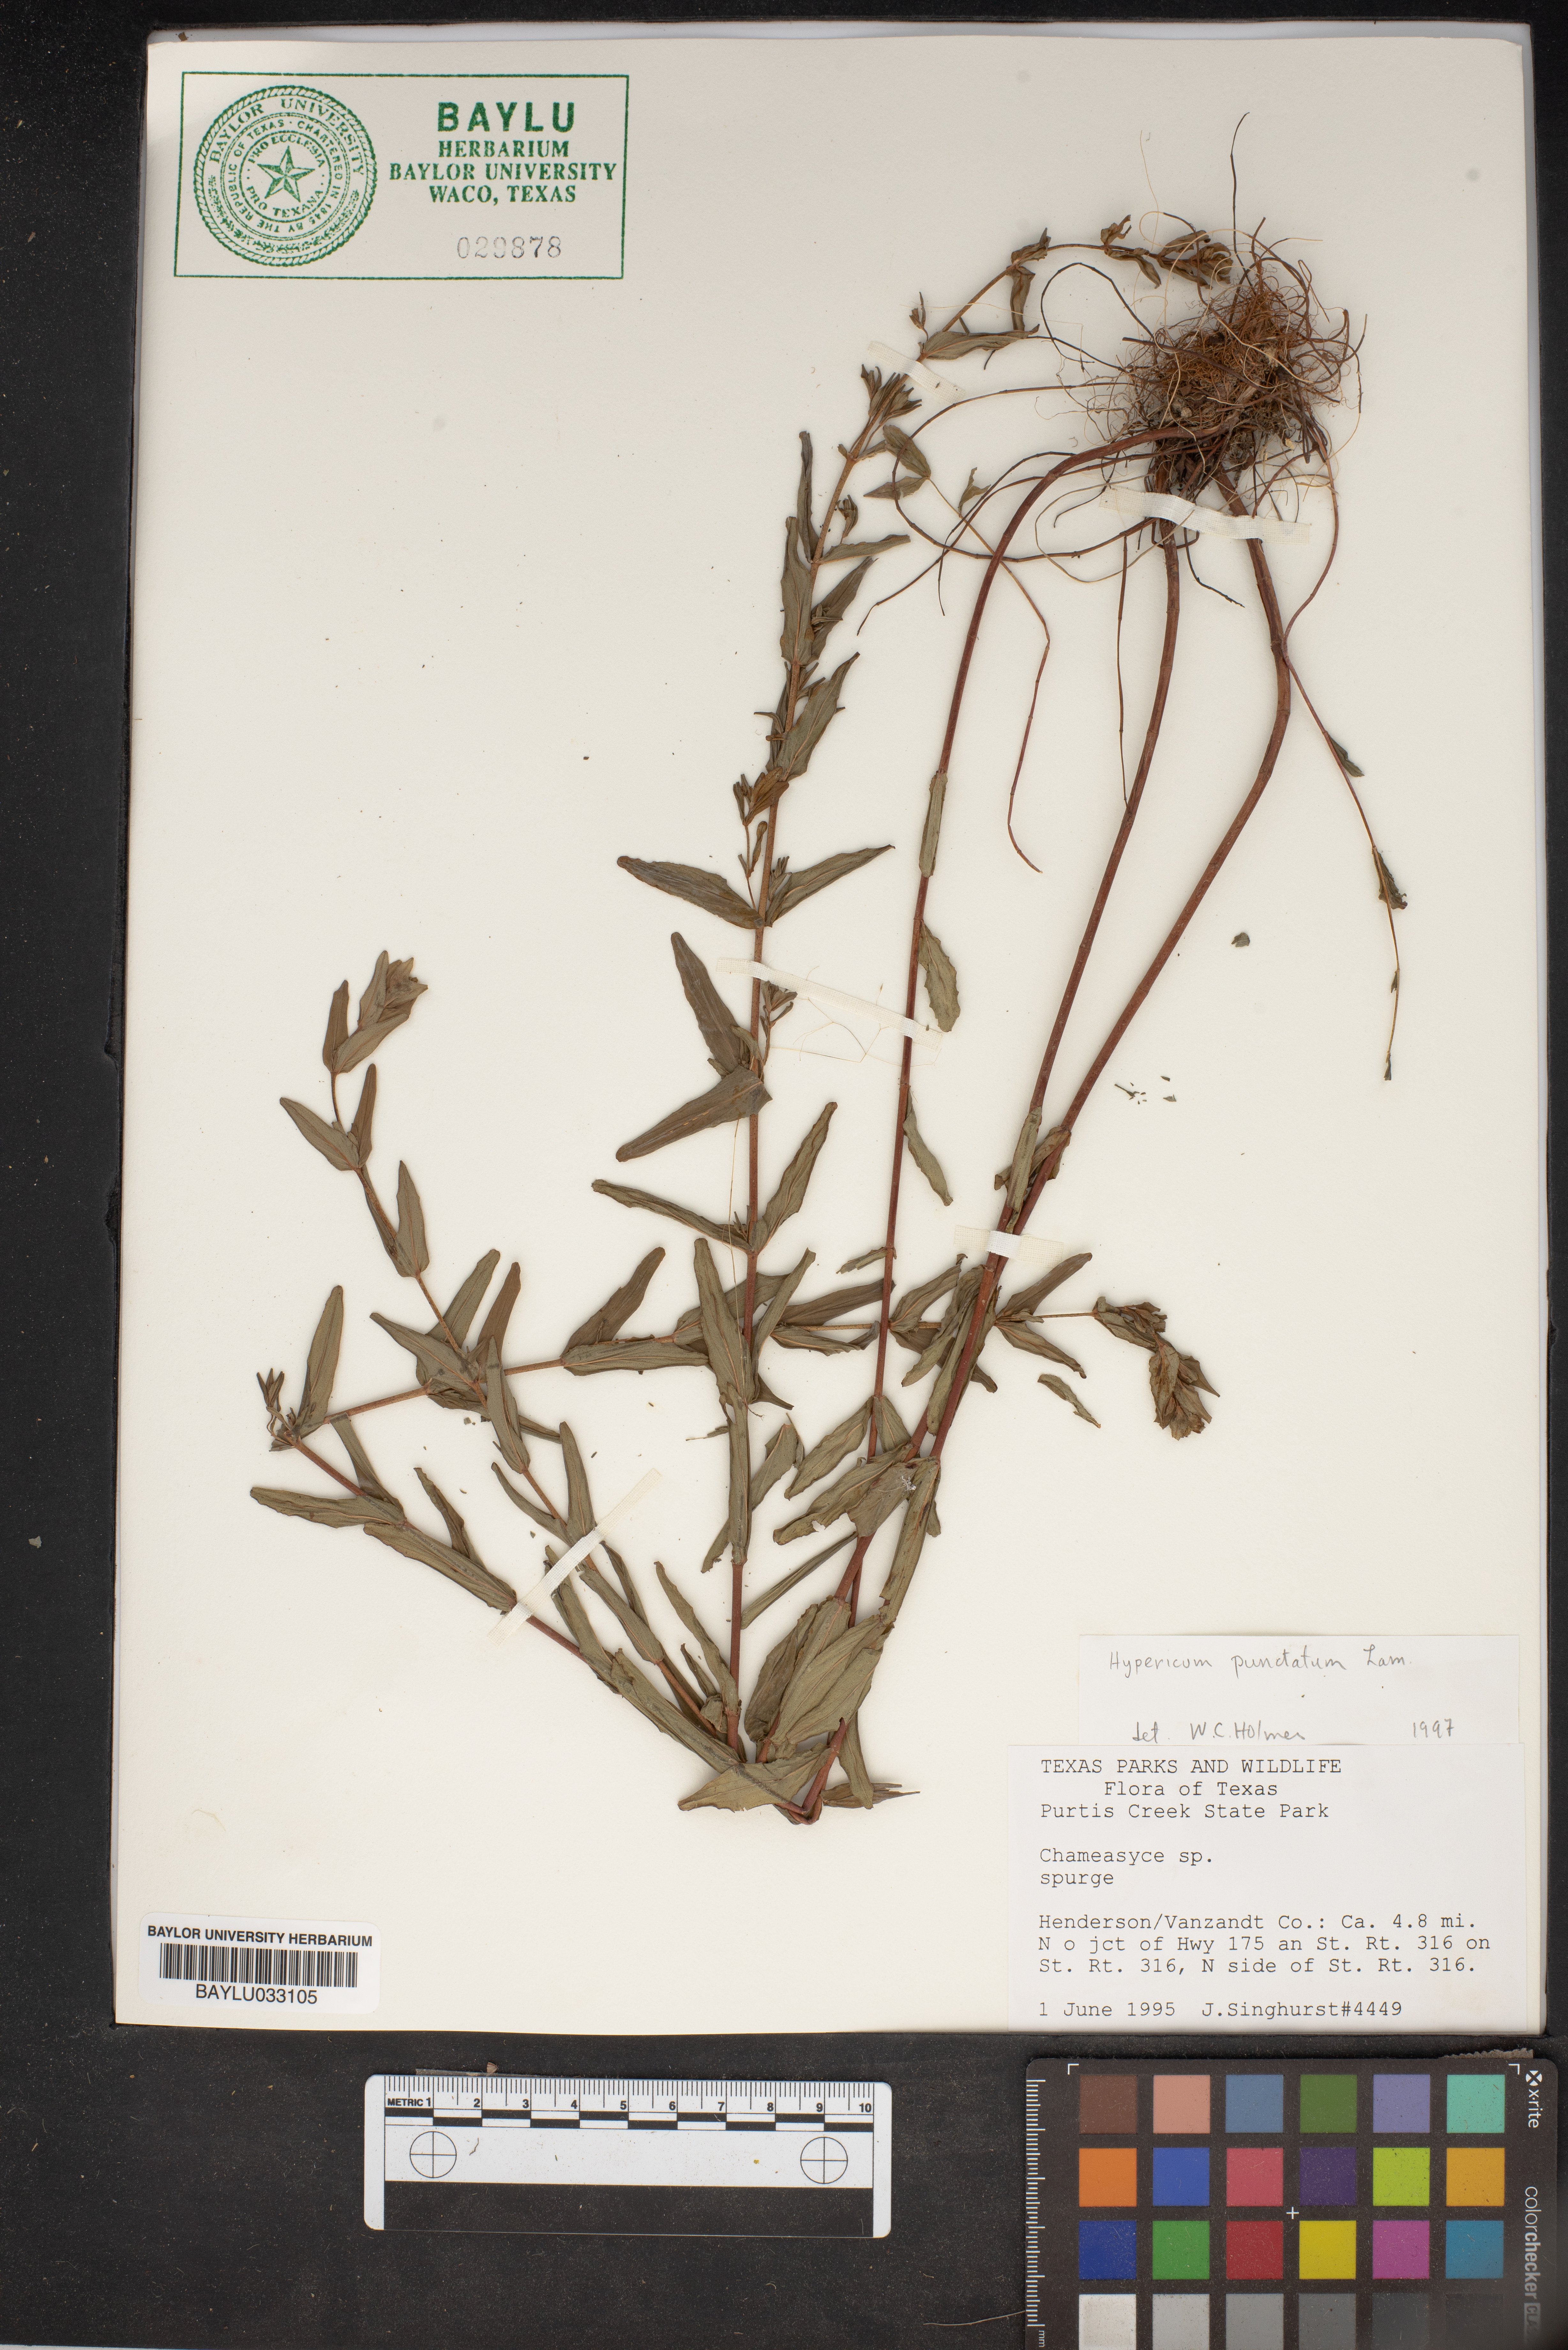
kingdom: Plantae
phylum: Tracheophyta
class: Magnoliopsida
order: Malpighiales
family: Euphorbiaceae
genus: Chamaesyce
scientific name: Chamaesyce
